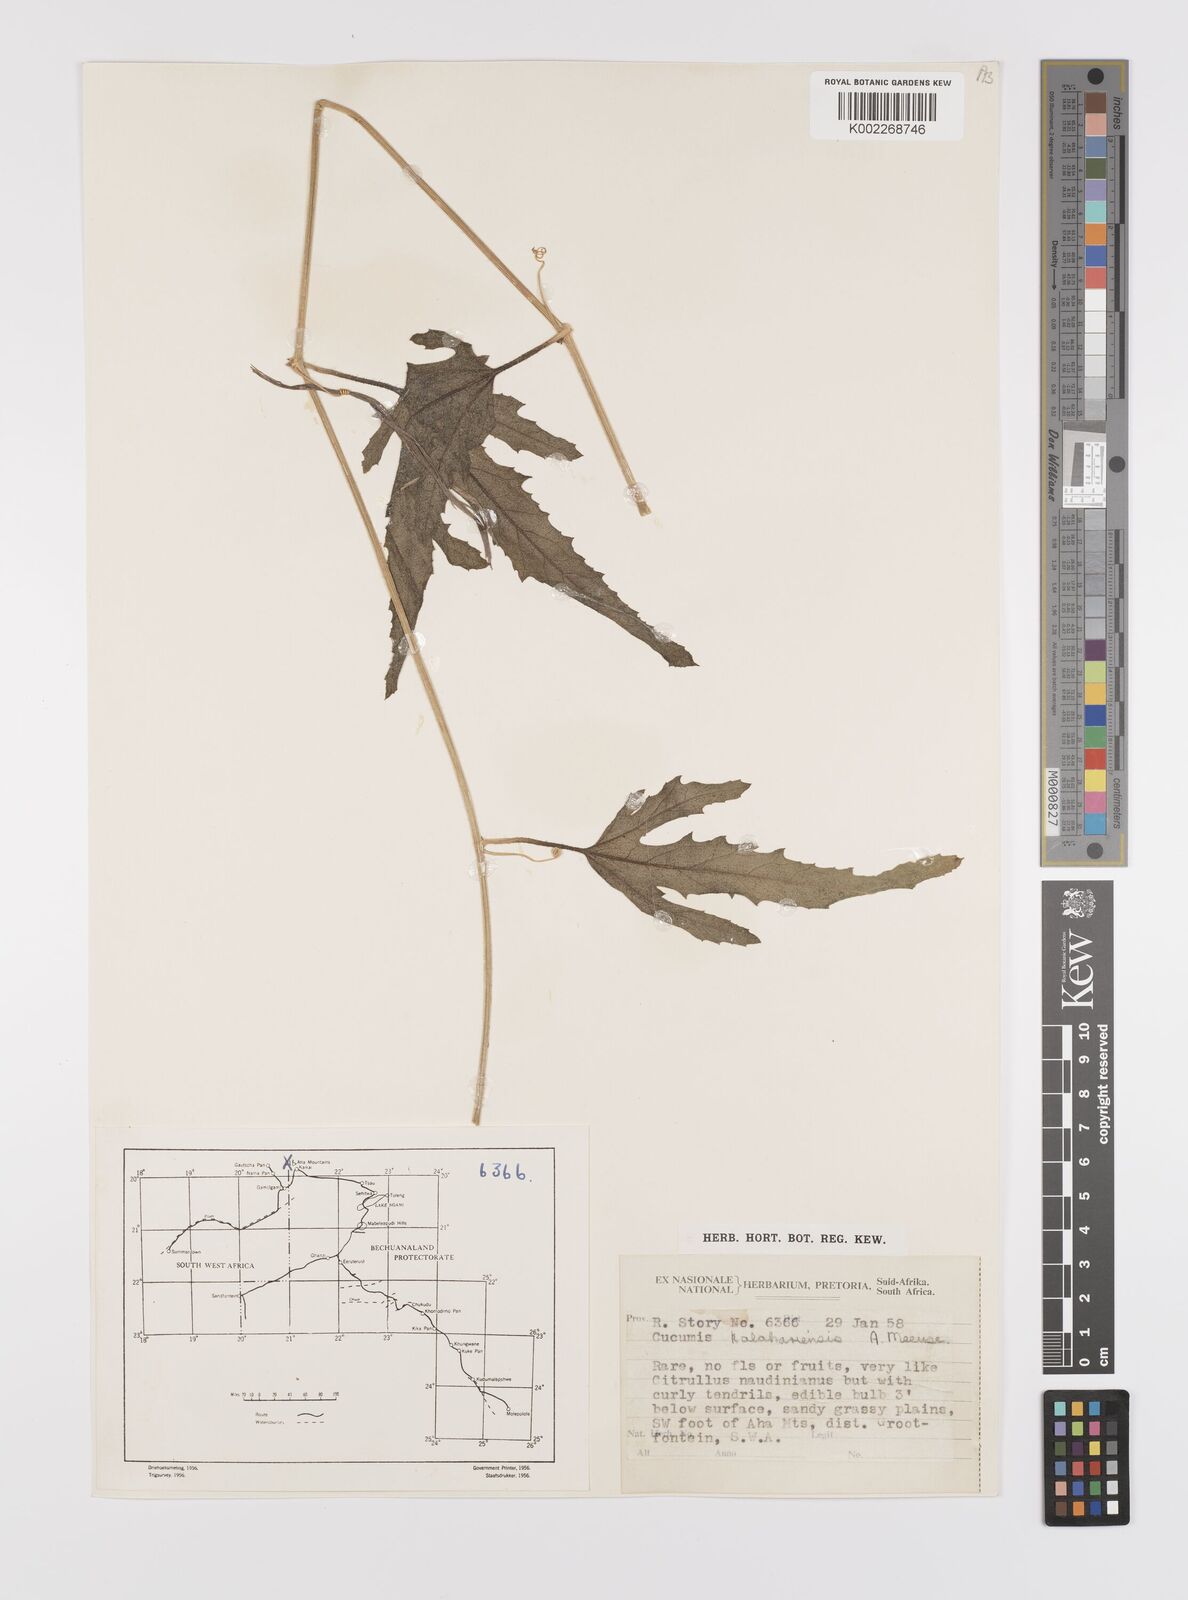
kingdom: Plantae
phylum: Tracheophyta
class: Magnoliopsida
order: Cucurbitales
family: Cucurbitaceae
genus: Cucumis
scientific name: Cucumis kalahariensis
